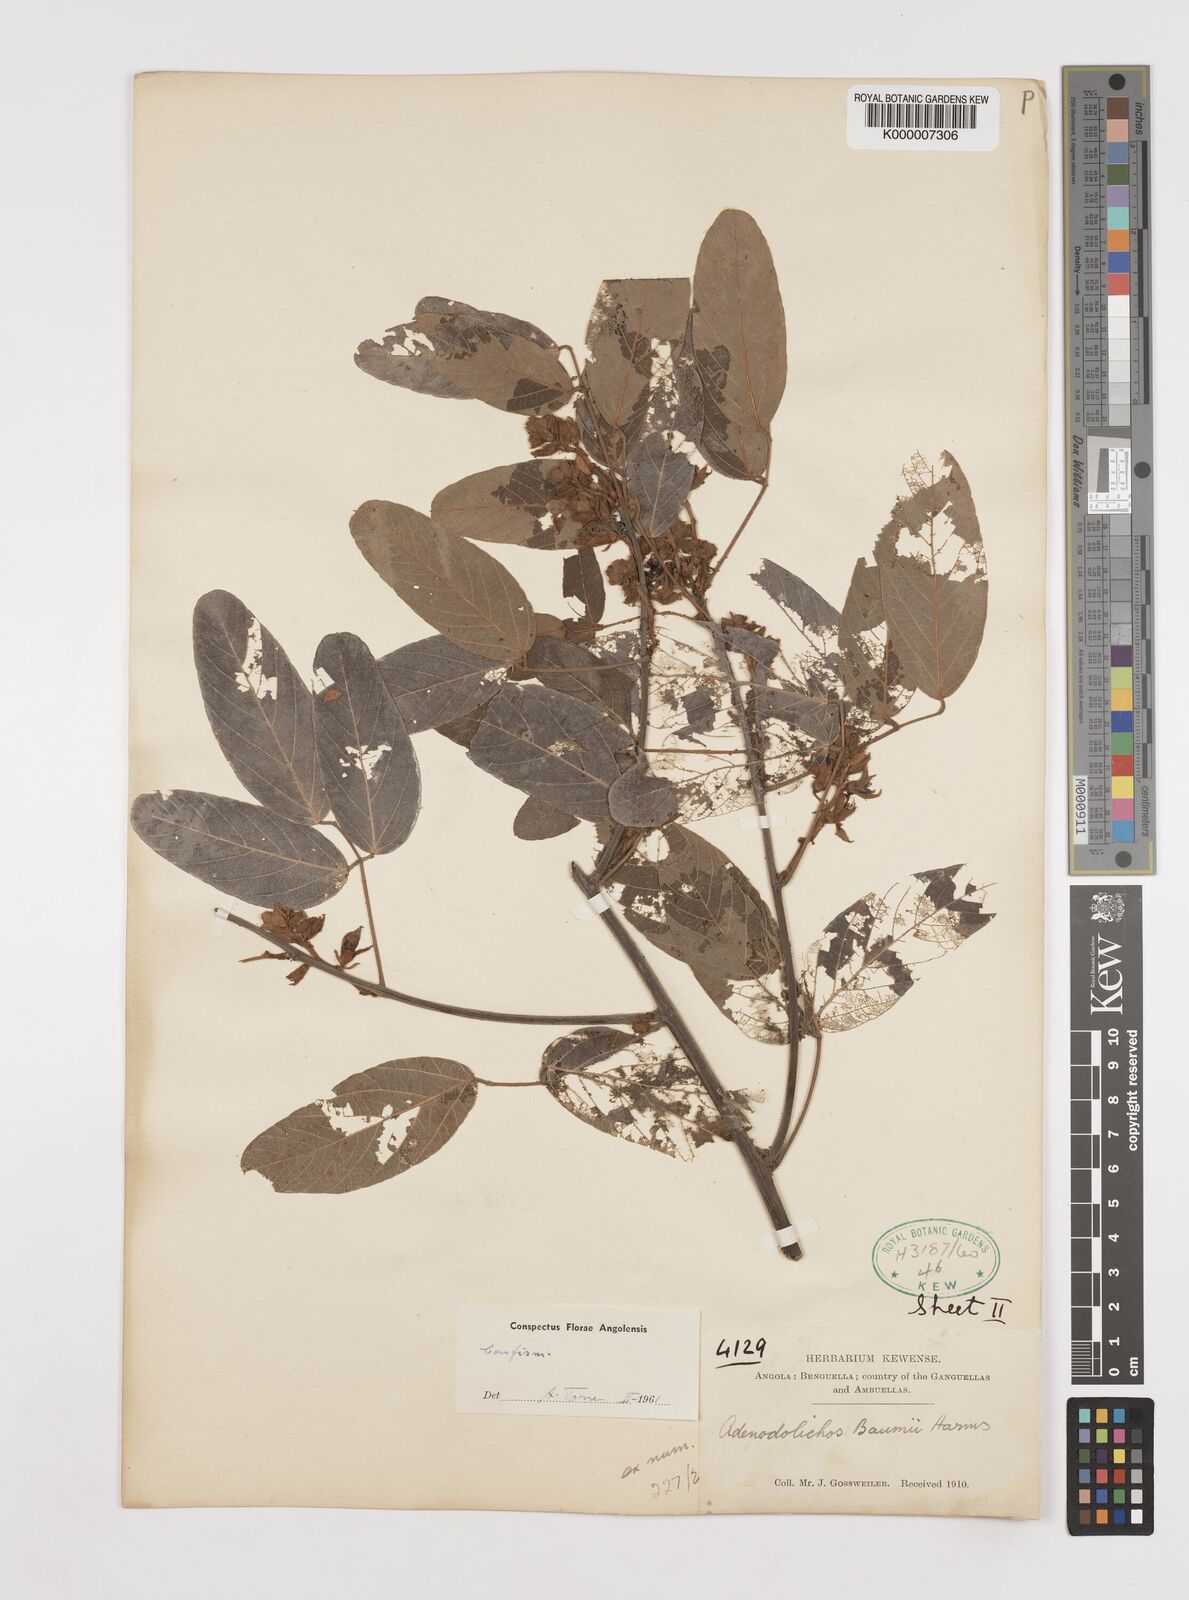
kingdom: Plantae
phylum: Tracheophyta
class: Magnoliopsida
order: Fabales
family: Fabaceae
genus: Adenodolichos
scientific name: Adenodolichos baumii
